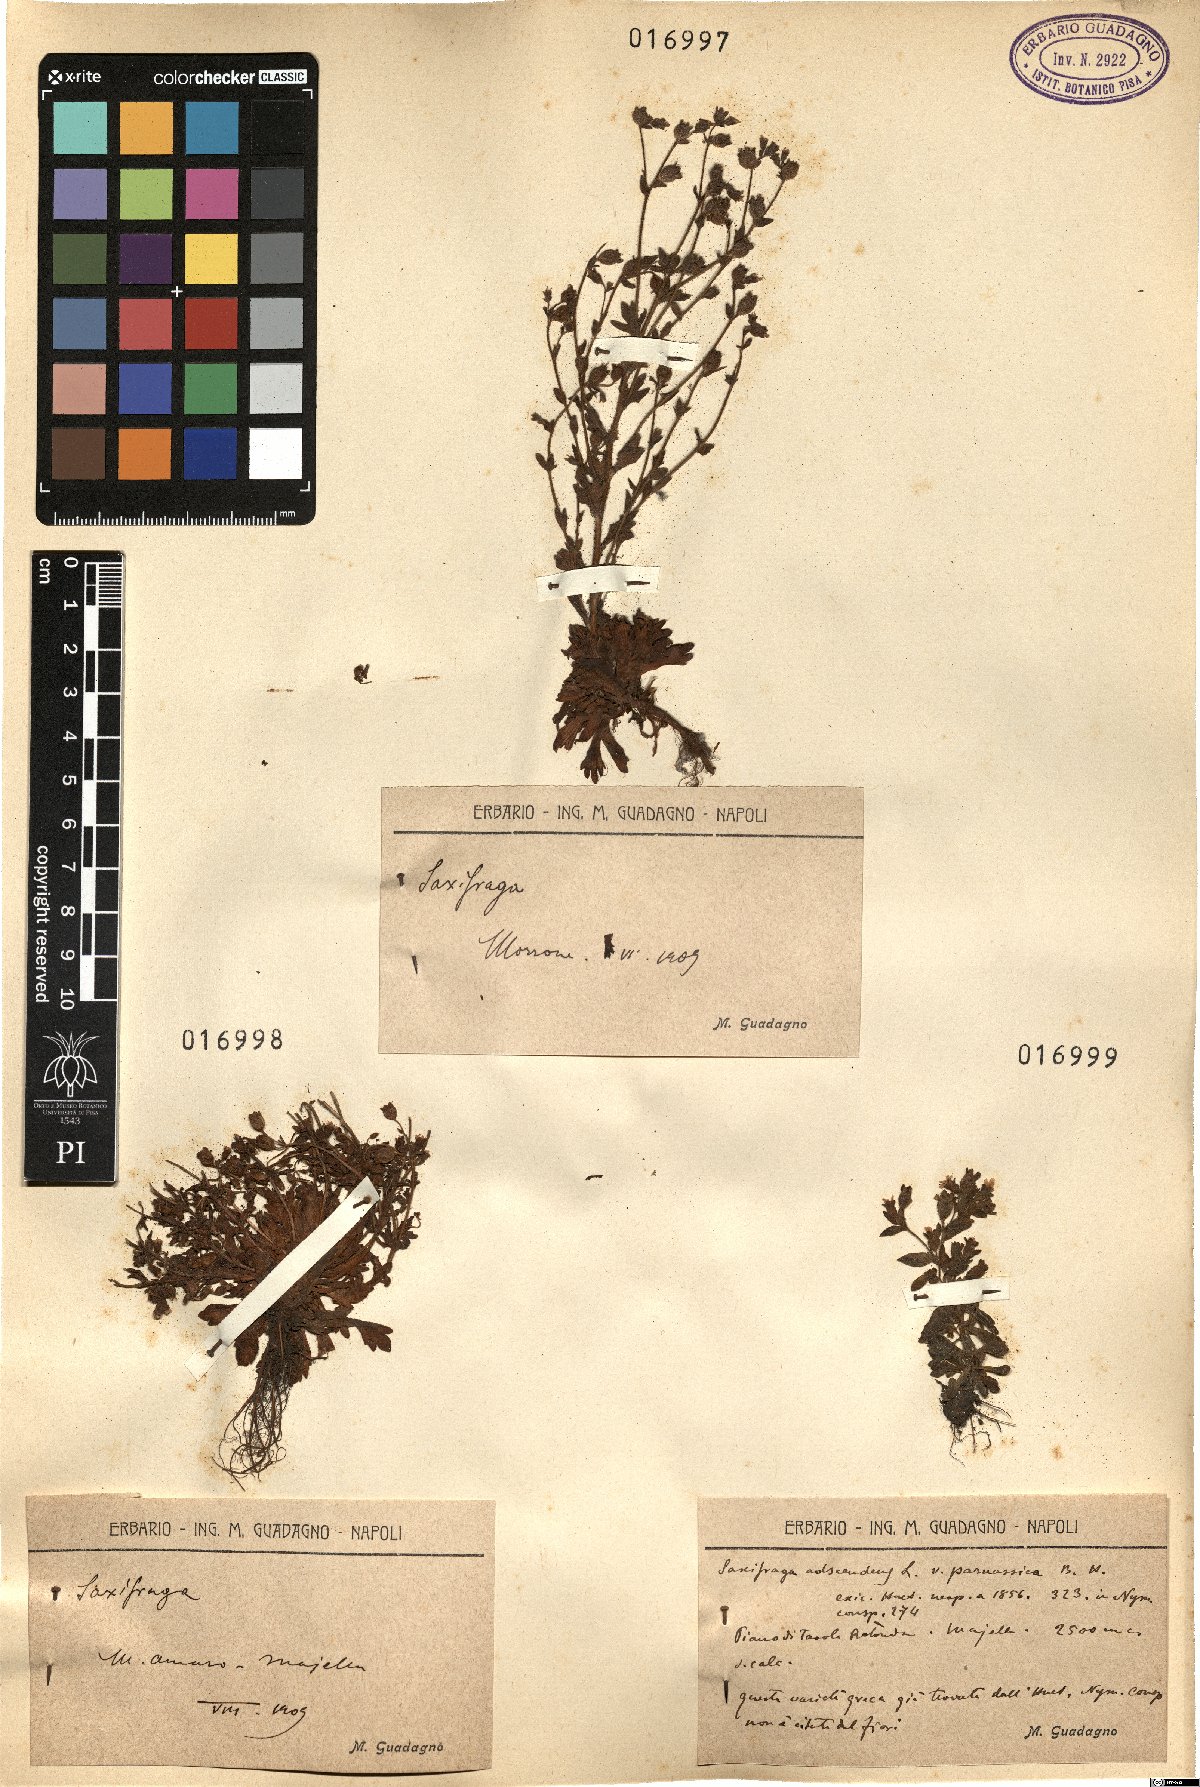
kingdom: Plantae
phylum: Tracheophyta
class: Magnoliopsida
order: Saxifragales
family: Saxifragaceae
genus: Saxifraga
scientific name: Saxifraga
